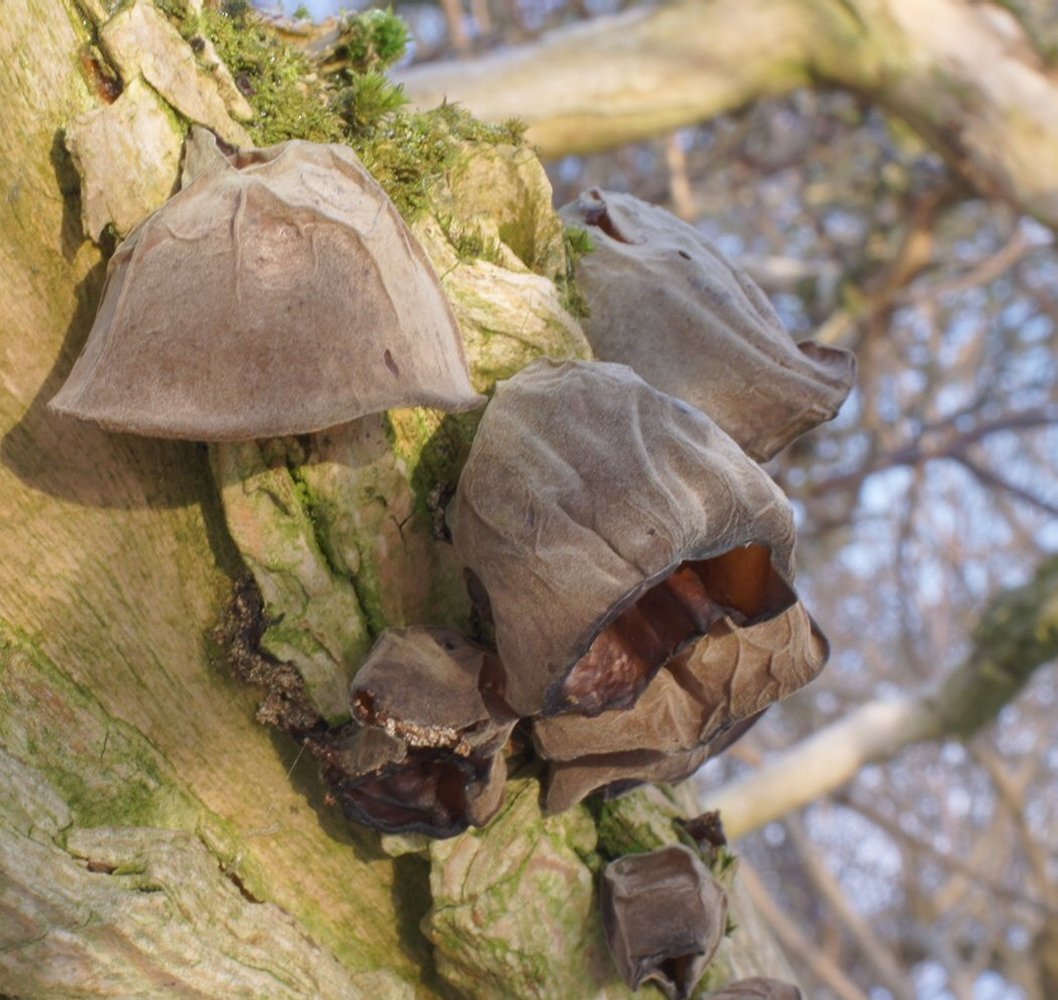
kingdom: Fungi
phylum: Basidiomycota
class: Agaricomycetes
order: Auriculariales
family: Auriculariaceae
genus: Auricularia
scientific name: Auricularia auricula-judae
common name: almindelig judasøre
